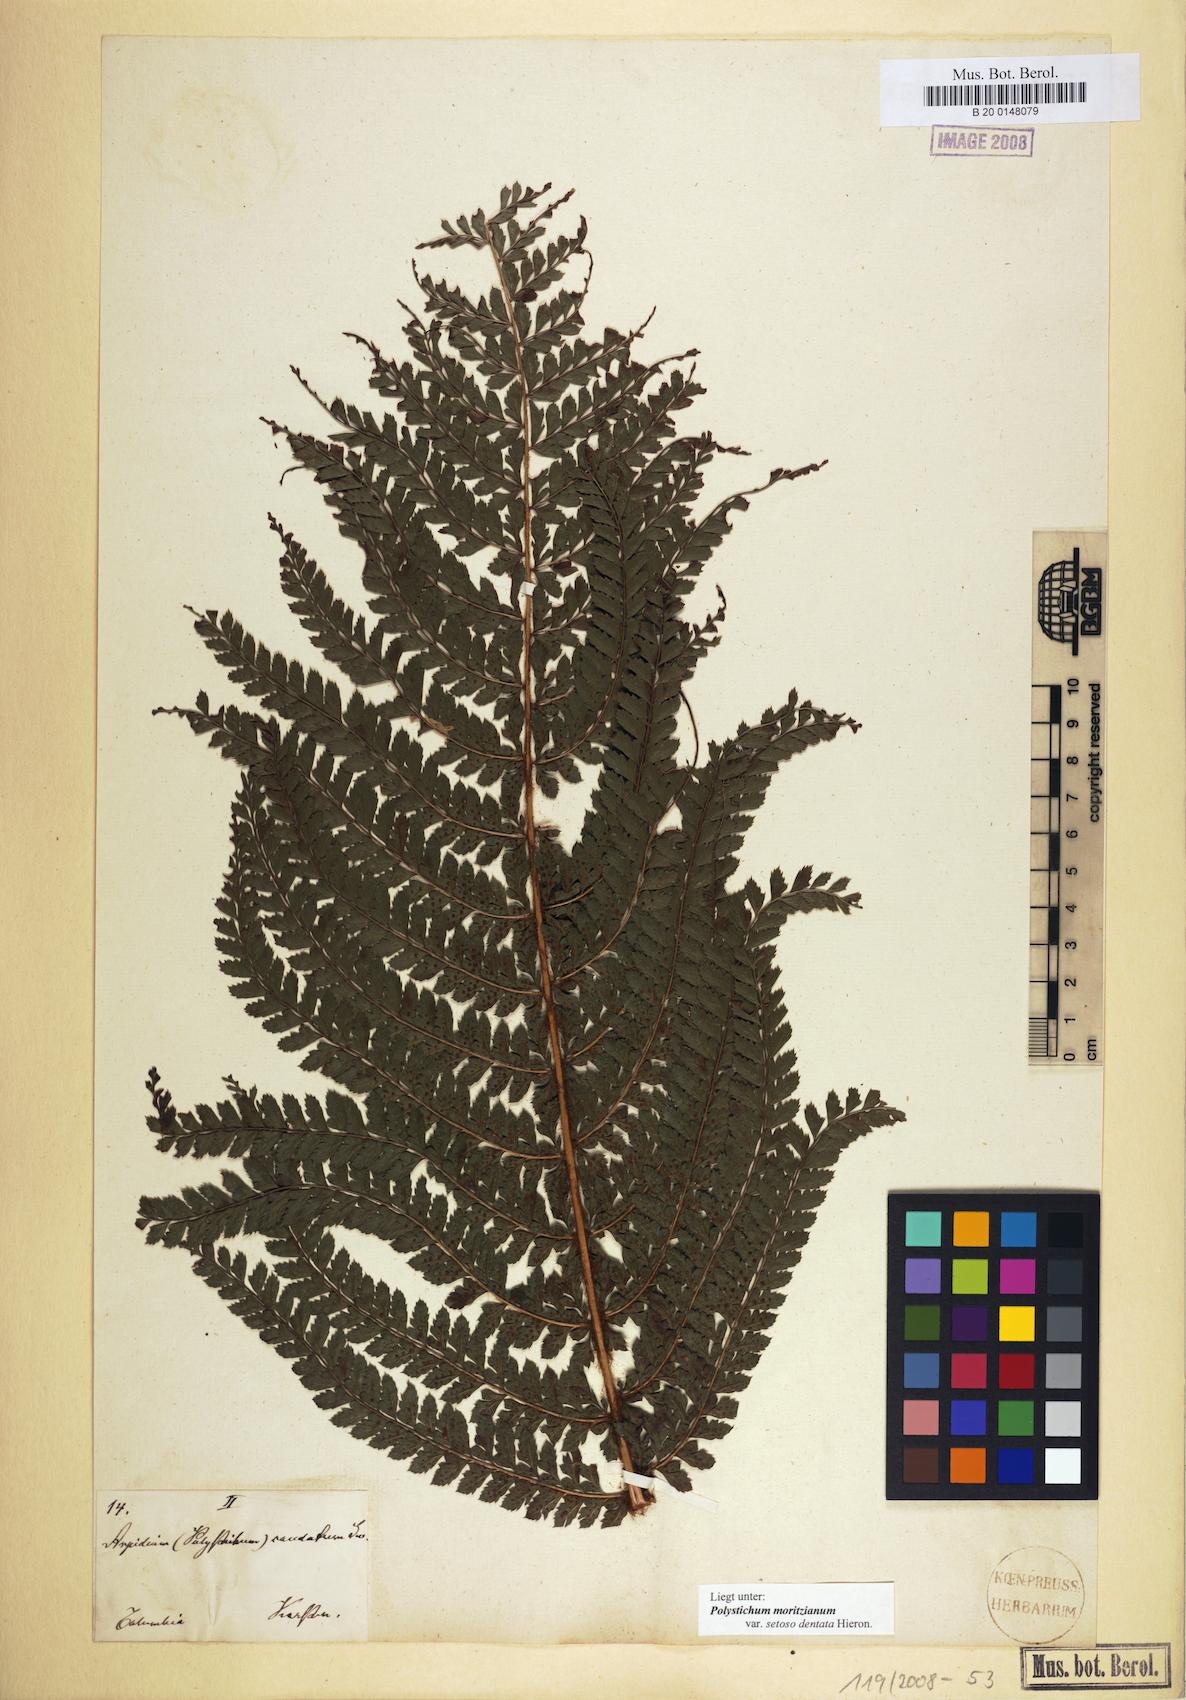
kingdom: Plantae
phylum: Tracheophyta
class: Polypodiopsida
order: Polypodiales
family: Dryopteridaceae
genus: Polystichum
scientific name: Polystichum muricatum
